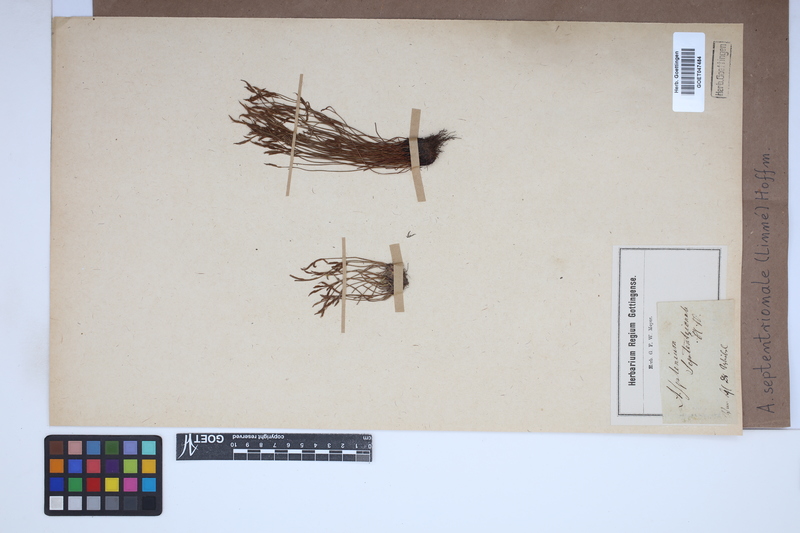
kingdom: Plantae
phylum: Tracheophyta
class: Polypodiopsida
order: Polypodiales
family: Aspleniaceae
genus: Asplenium
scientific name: Asplenium septentrionale
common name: Forked spleenwort
